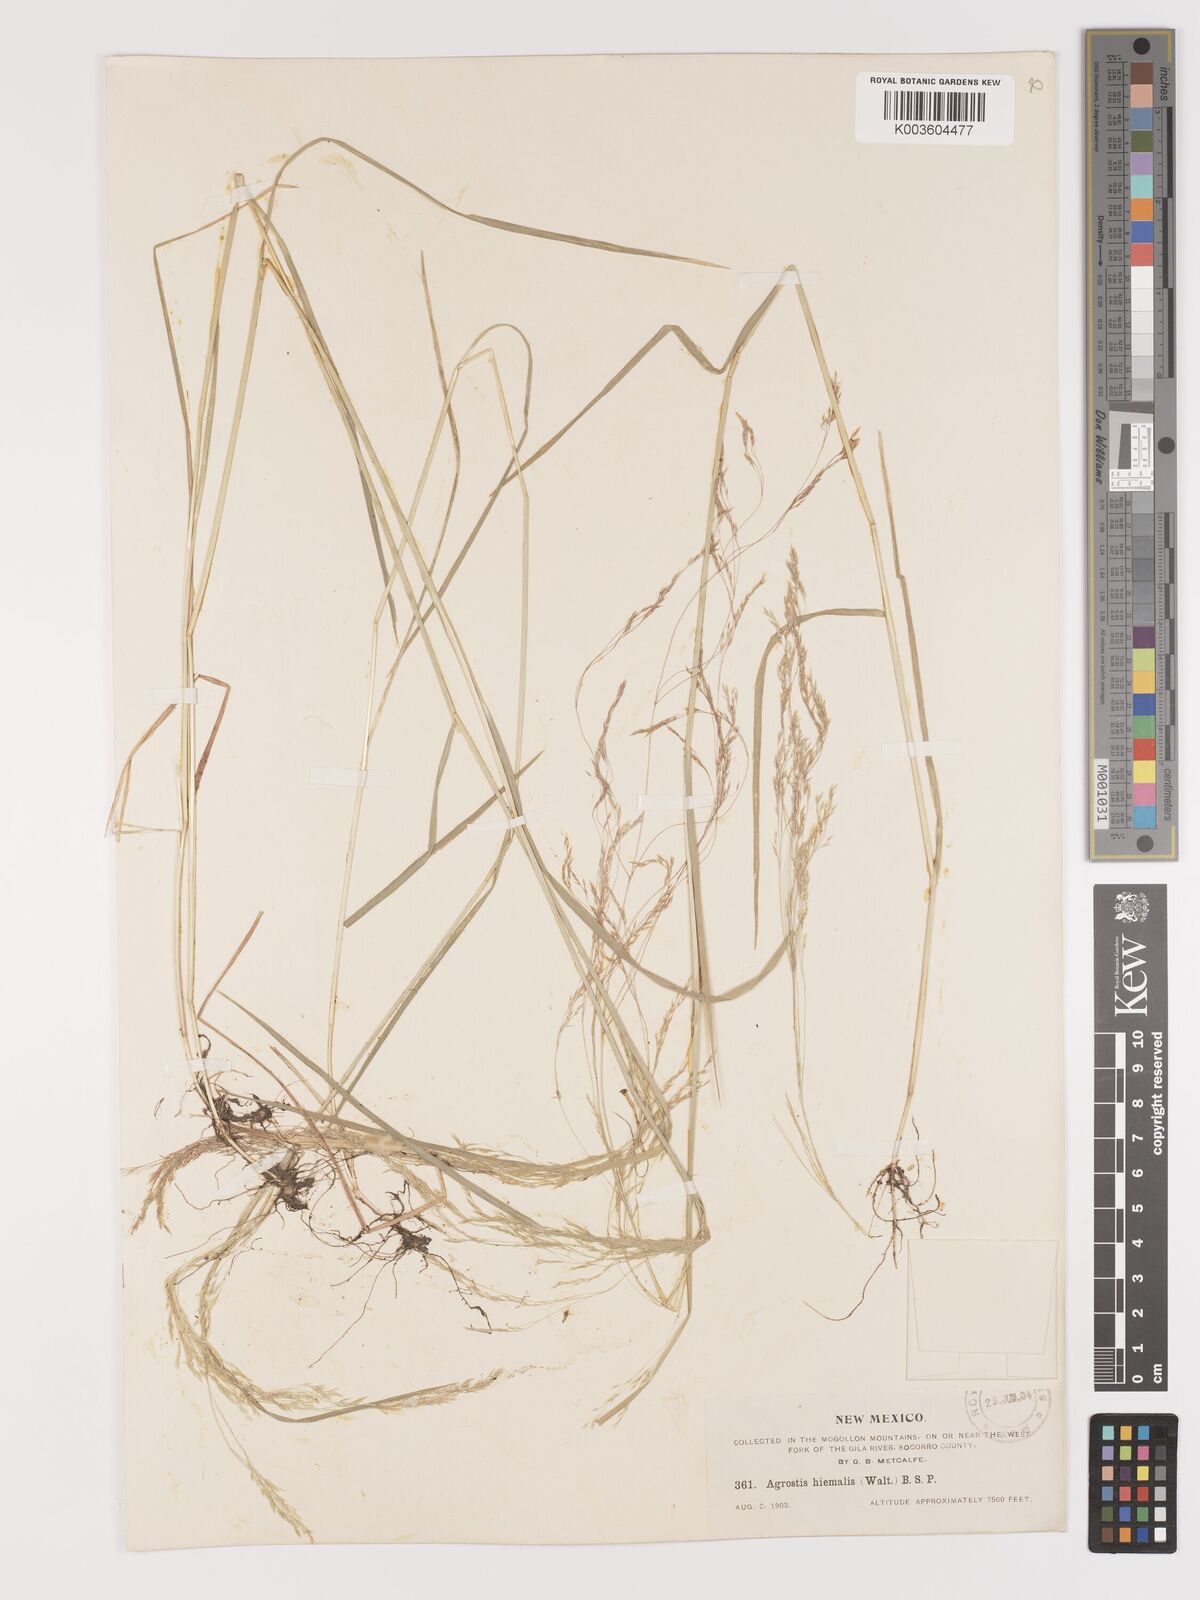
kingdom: Plantae
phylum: Tracheophyta
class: Liliopsida
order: Poales
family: Poaceae
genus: Agrostis
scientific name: Agrostis hyemalis
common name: Small bent
